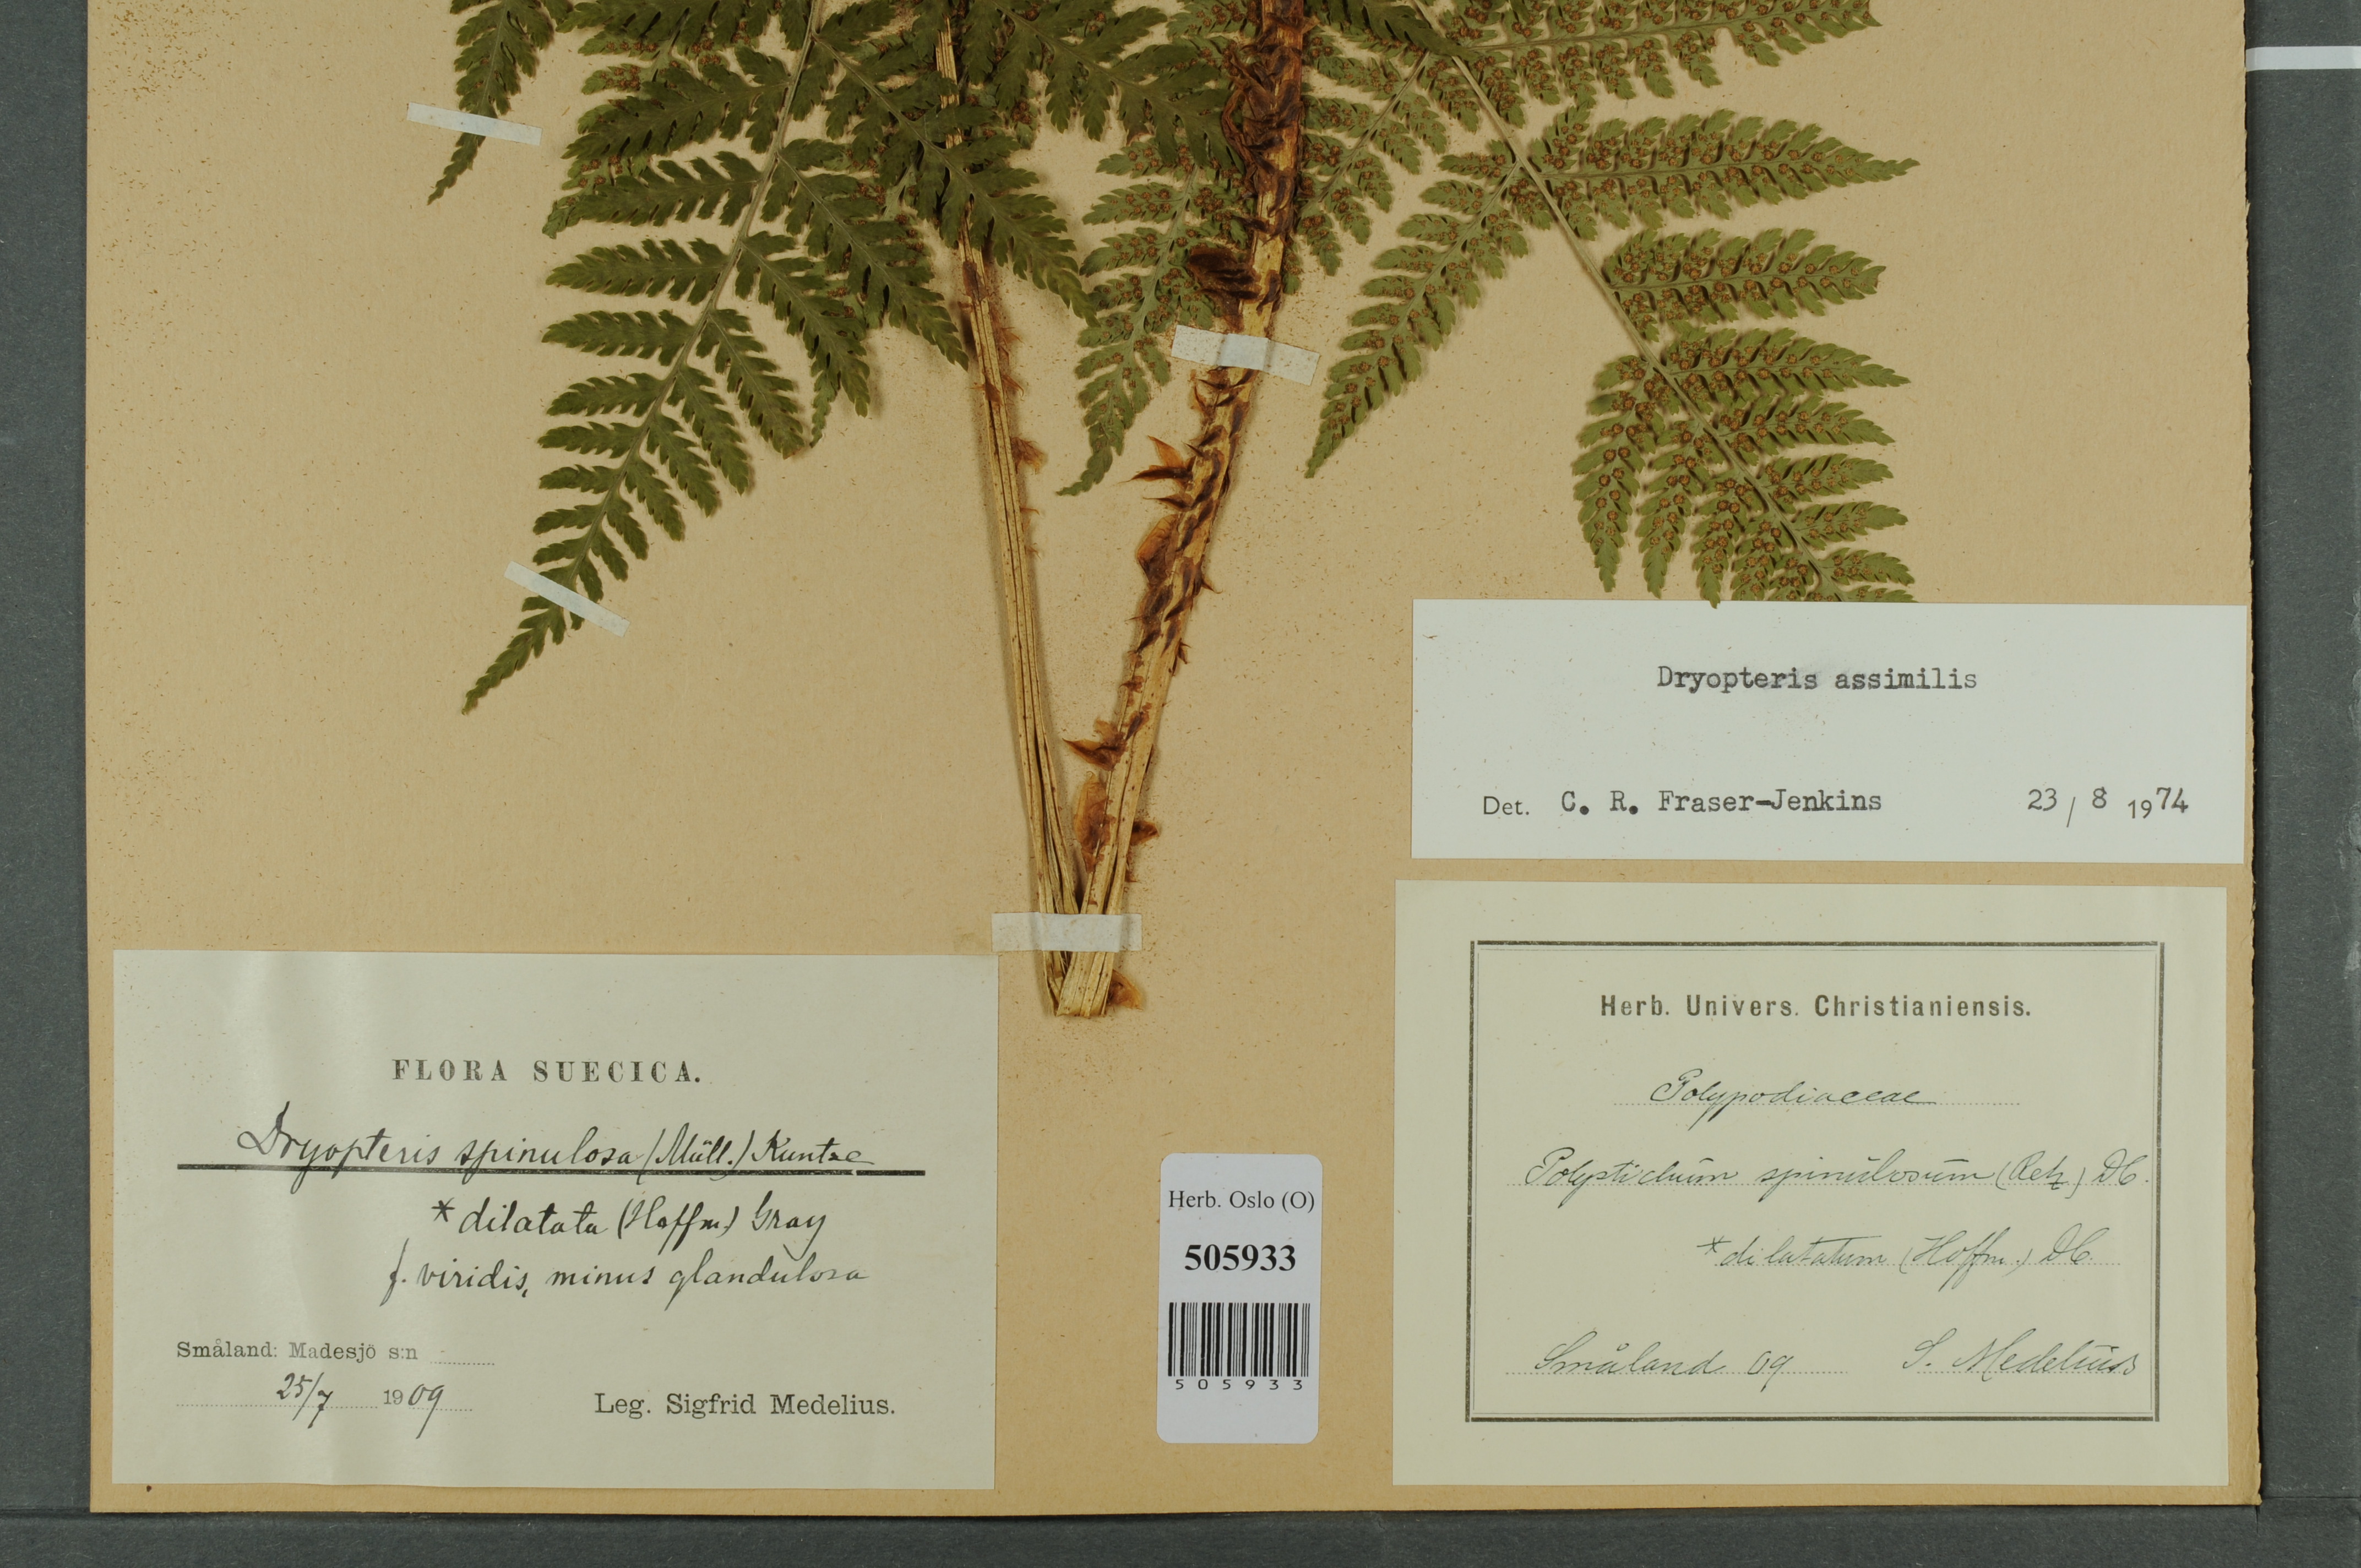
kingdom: Plantae
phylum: Tracheophyta
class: Polypodiopsida
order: Polypodiales
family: Dryopteridaceae
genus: Dryopteris
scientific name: Dryopteris expansa
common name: Northern buckler fern
